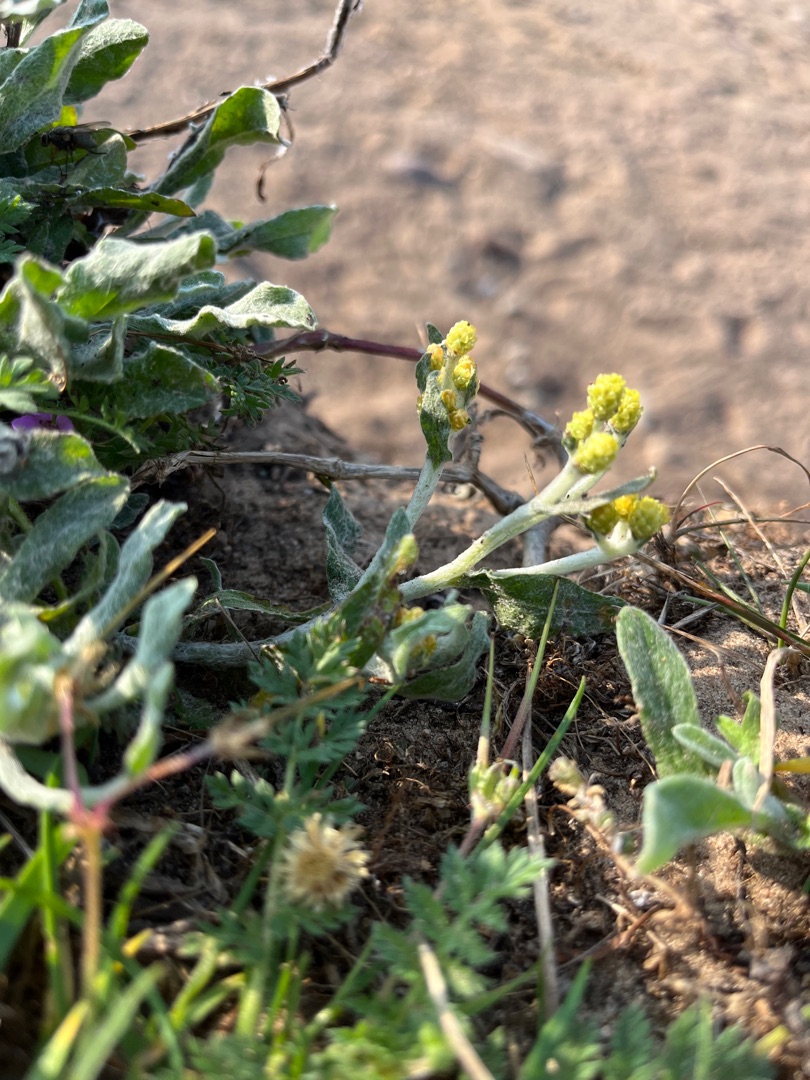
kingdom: Plantae
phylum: Tracheophyta
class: Magnoliopsida
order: Asterales
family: Asteraceae
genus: Helichrysum
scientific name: Helichrysum arenarium
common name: Gul evighedsblomst
